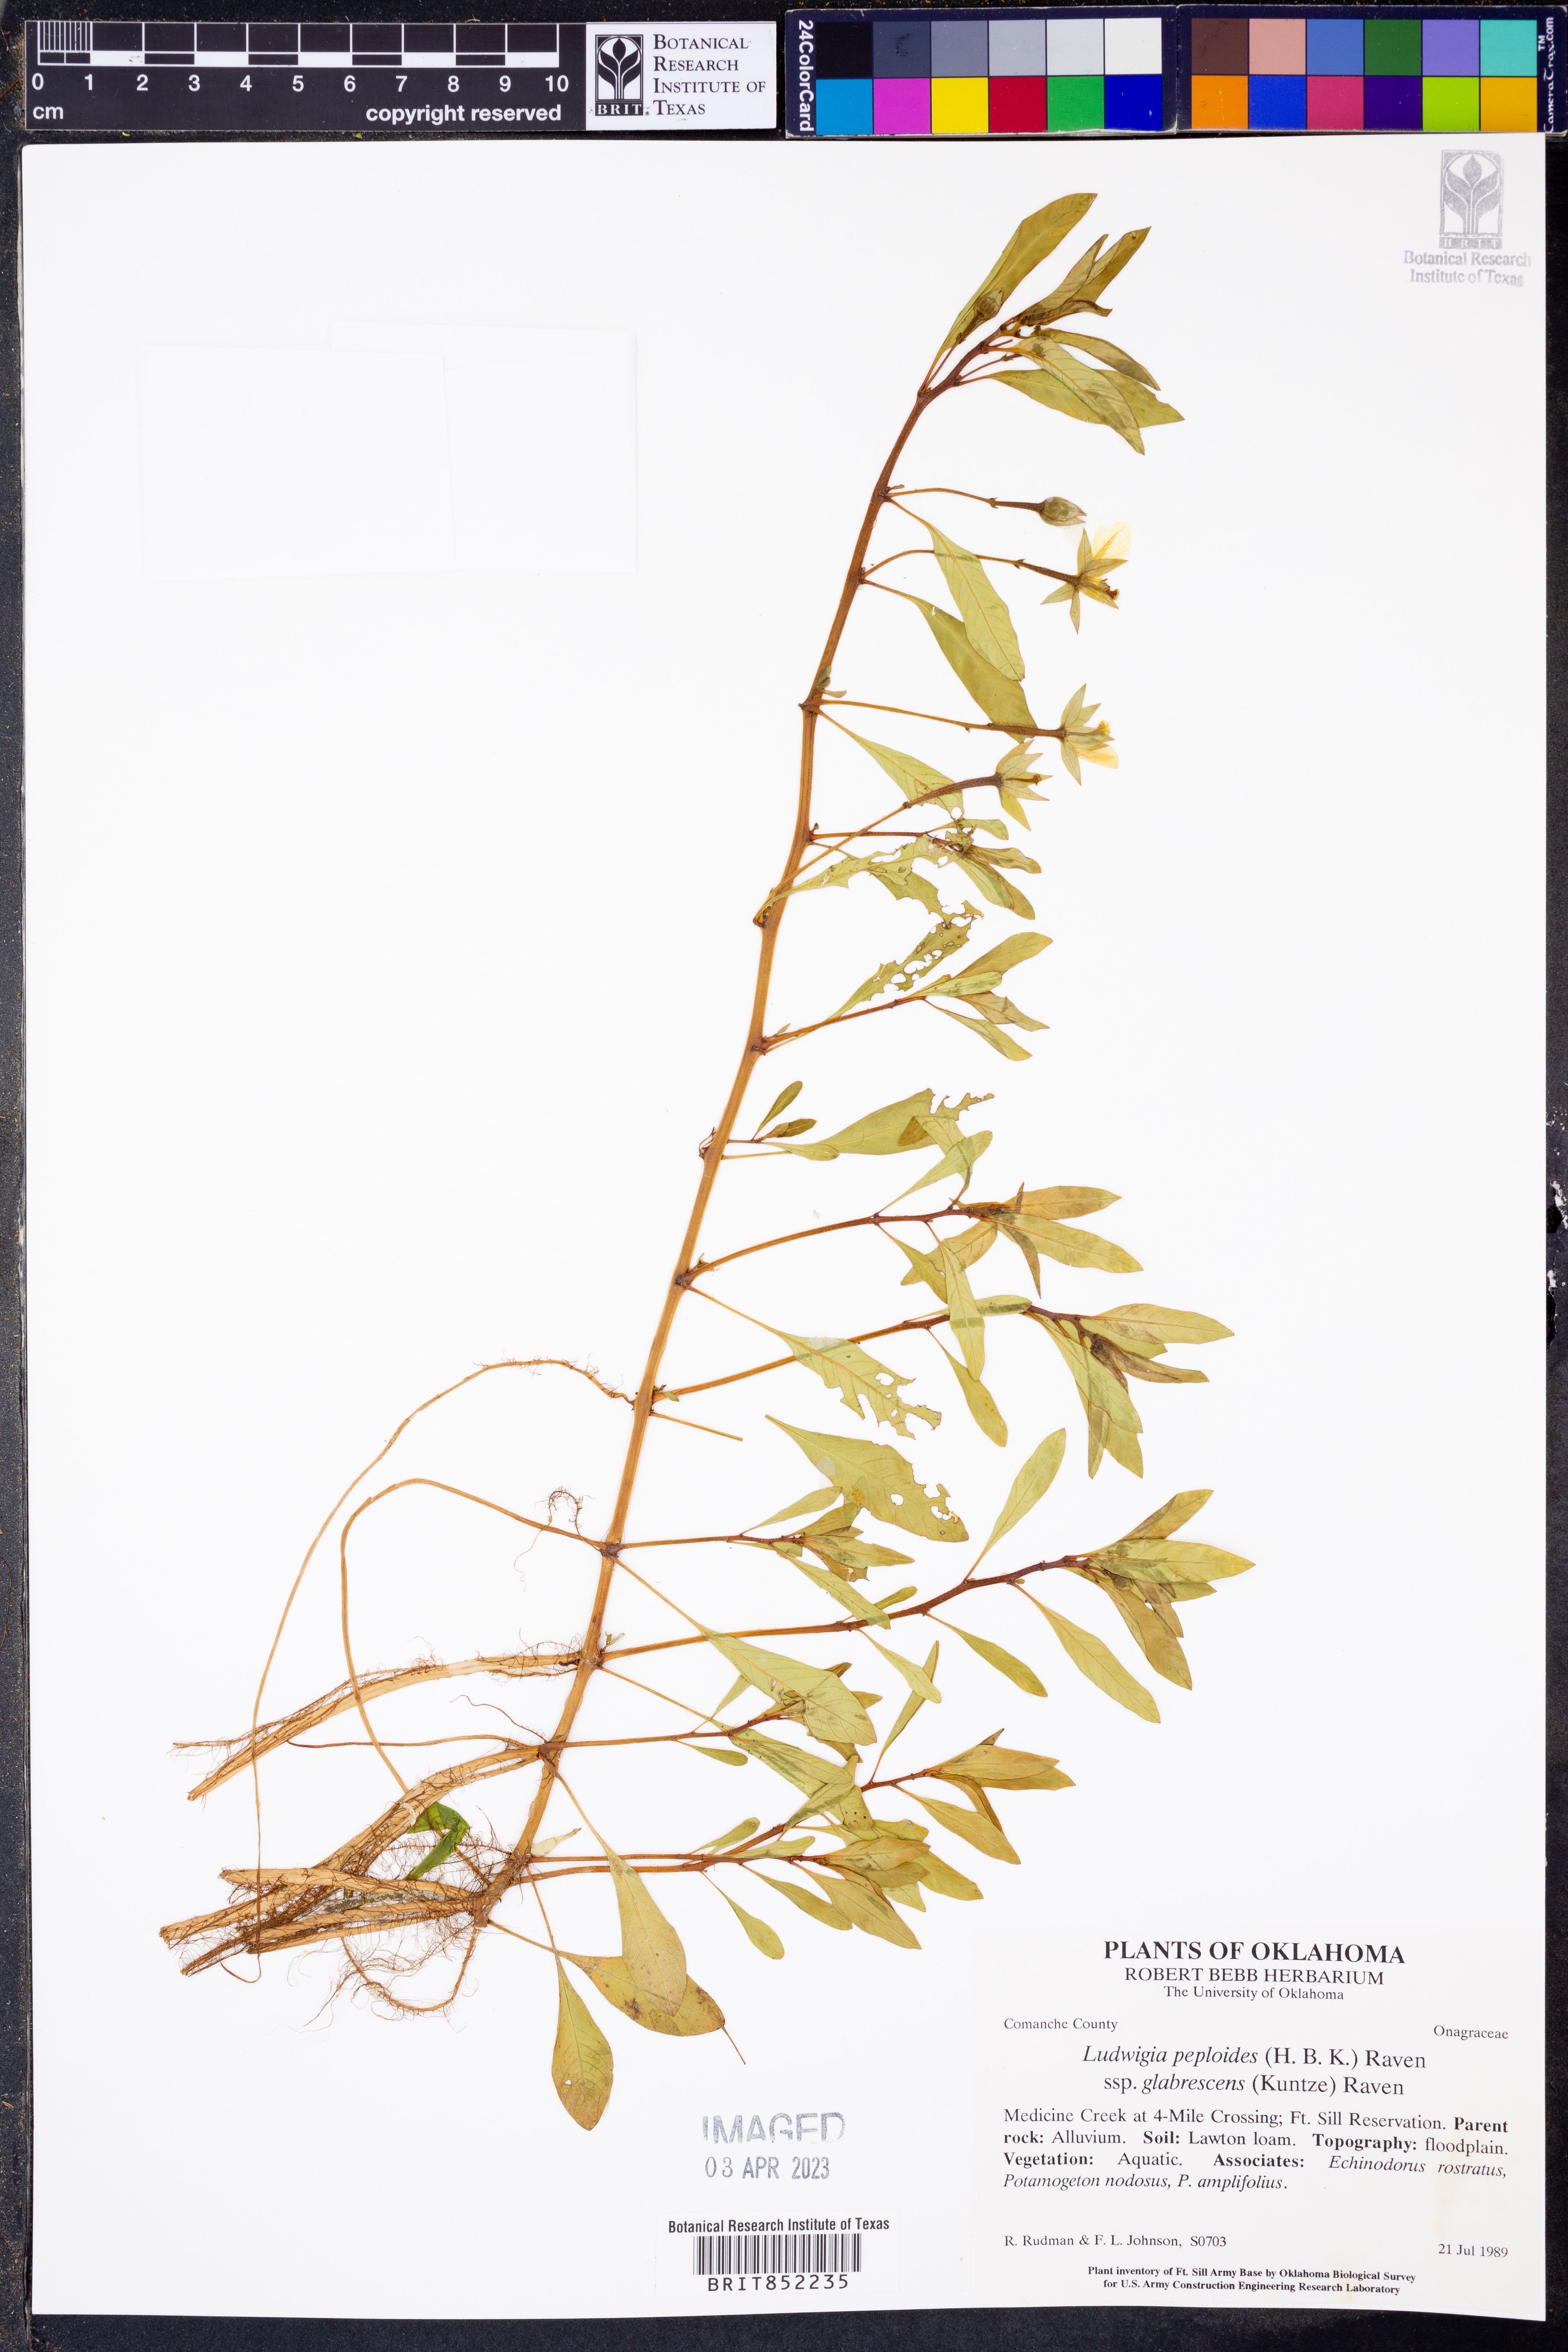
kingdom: Plantae
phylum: Tracheophyta
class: Magnoliopsida
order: Myrtales
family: Onagraceae
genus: Ludwigia
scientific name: Ludwigia peploides
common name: Floating primrose-willow
